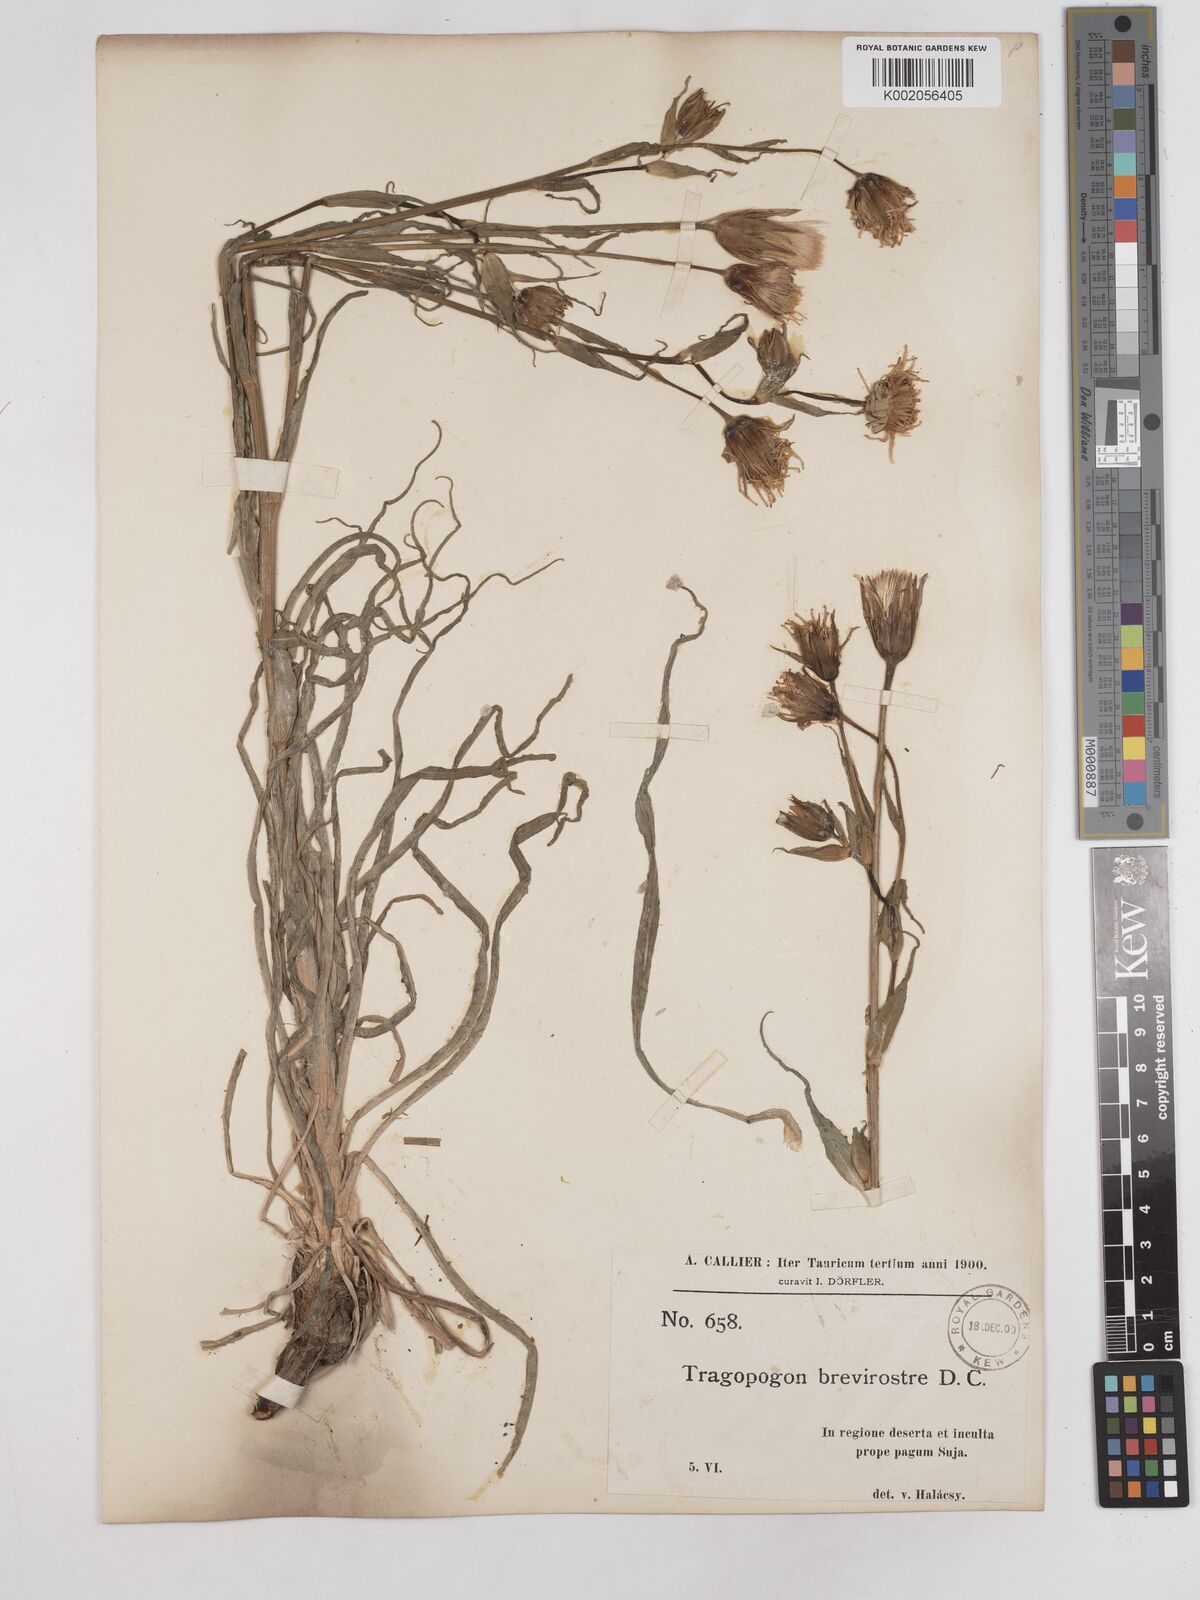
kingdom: Plantae
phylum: Tracheophyta
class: Magnoliopsida
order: Asterales
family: Asteraceae
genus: Tragopogon
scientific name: Tragopogon brevirostris
